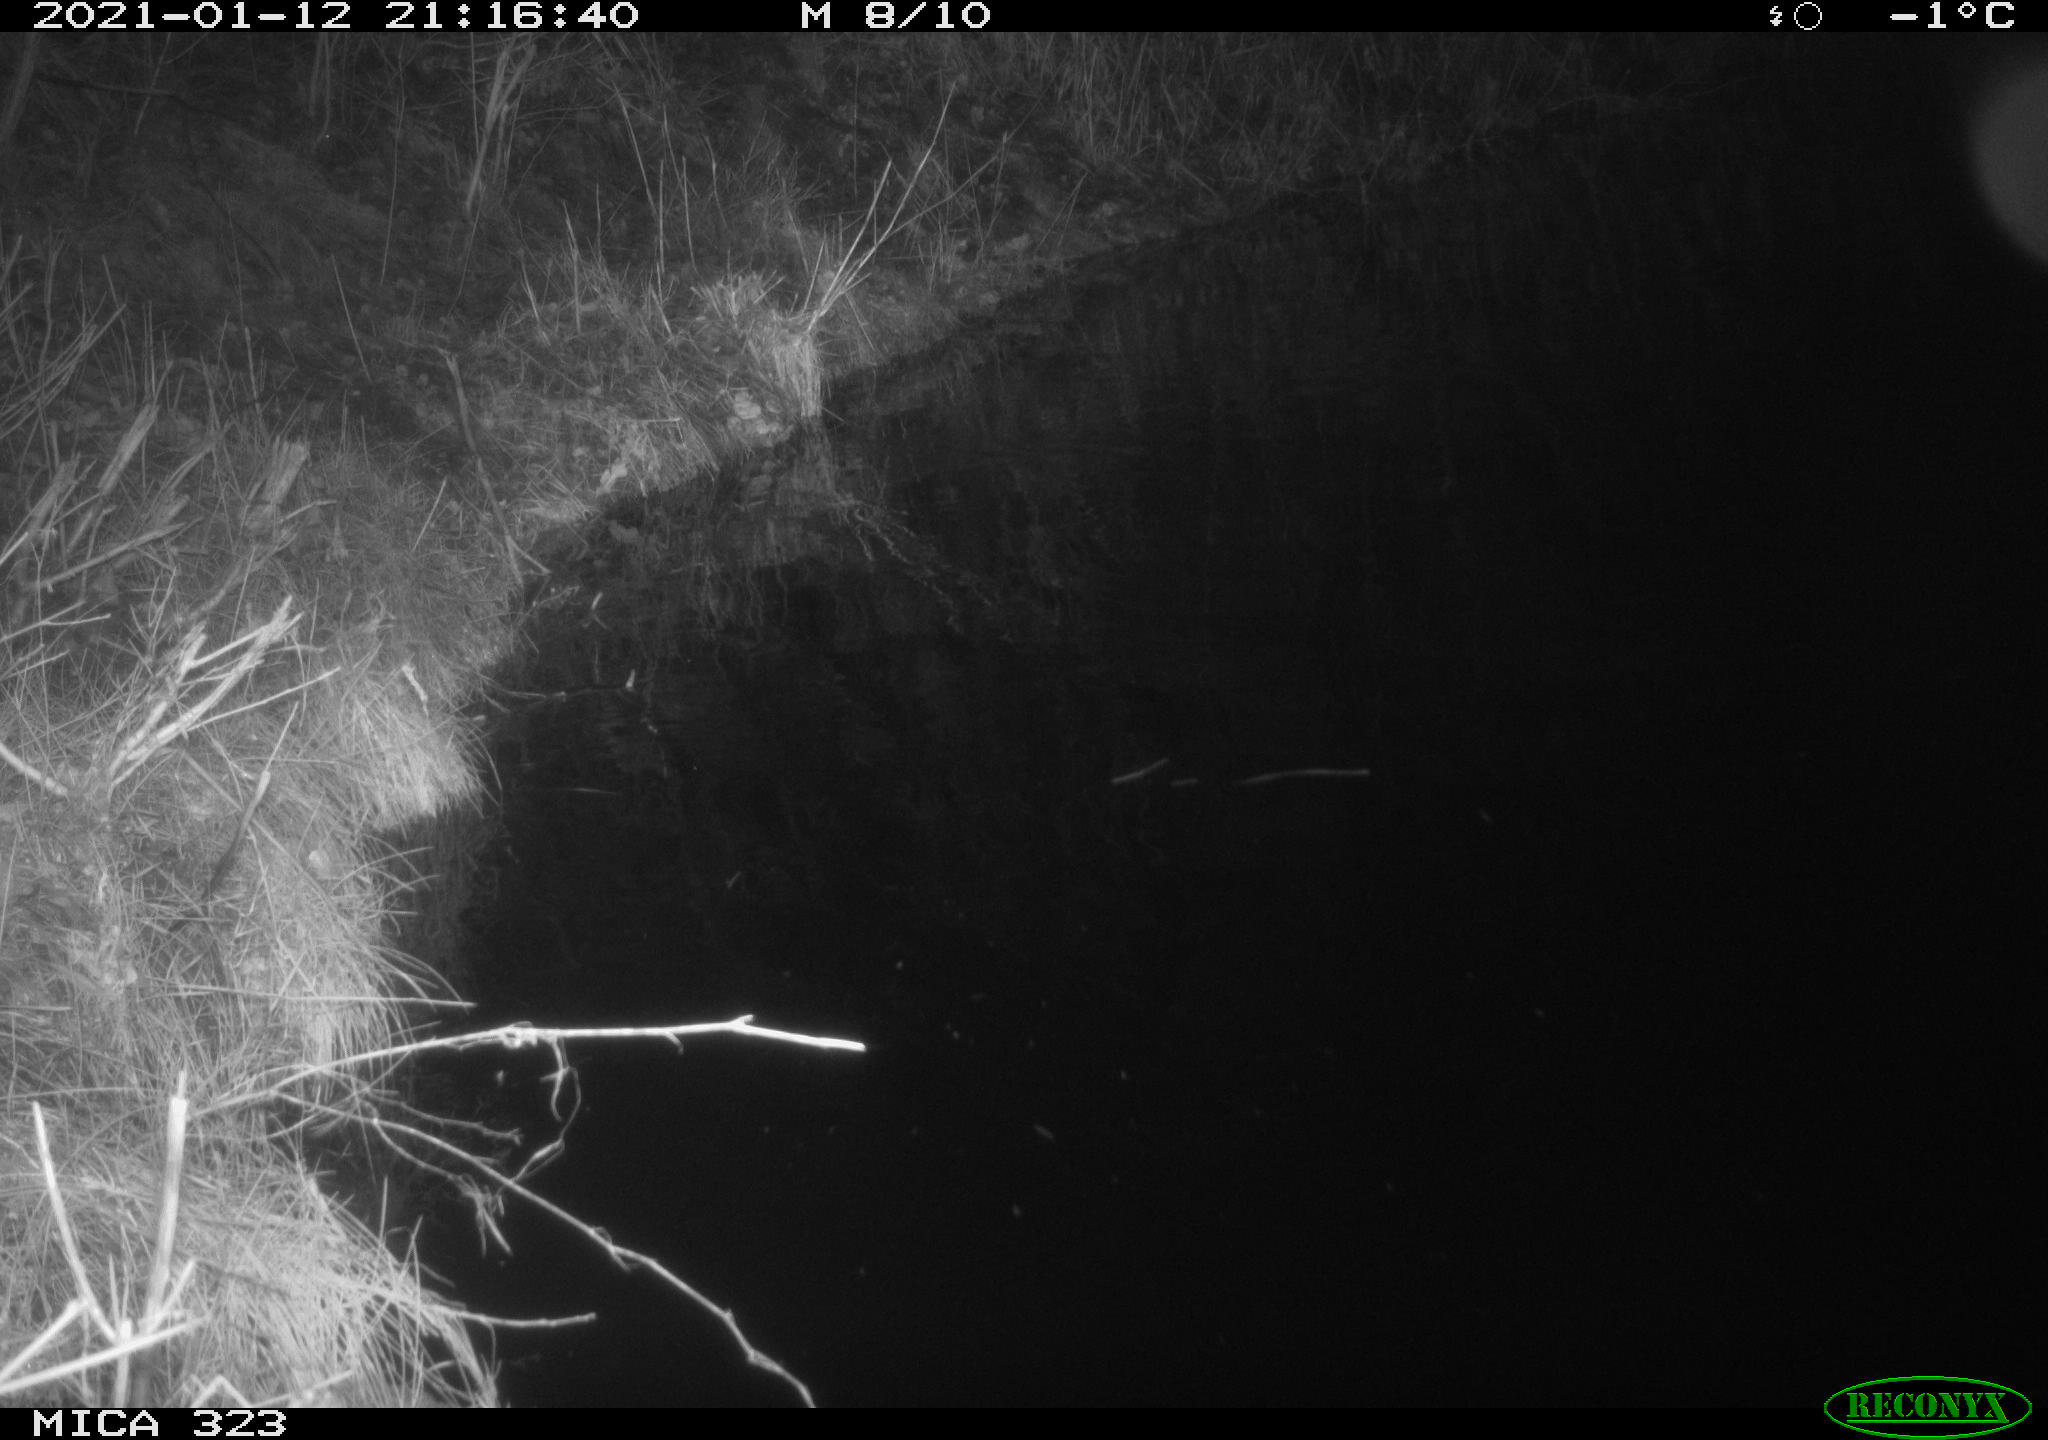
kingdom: Animalia
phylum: Chordata
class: Mammalia
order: Rodentia
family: Myocastoridae
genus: Myocastor
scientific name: Myocastor coypus
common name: Coypu
